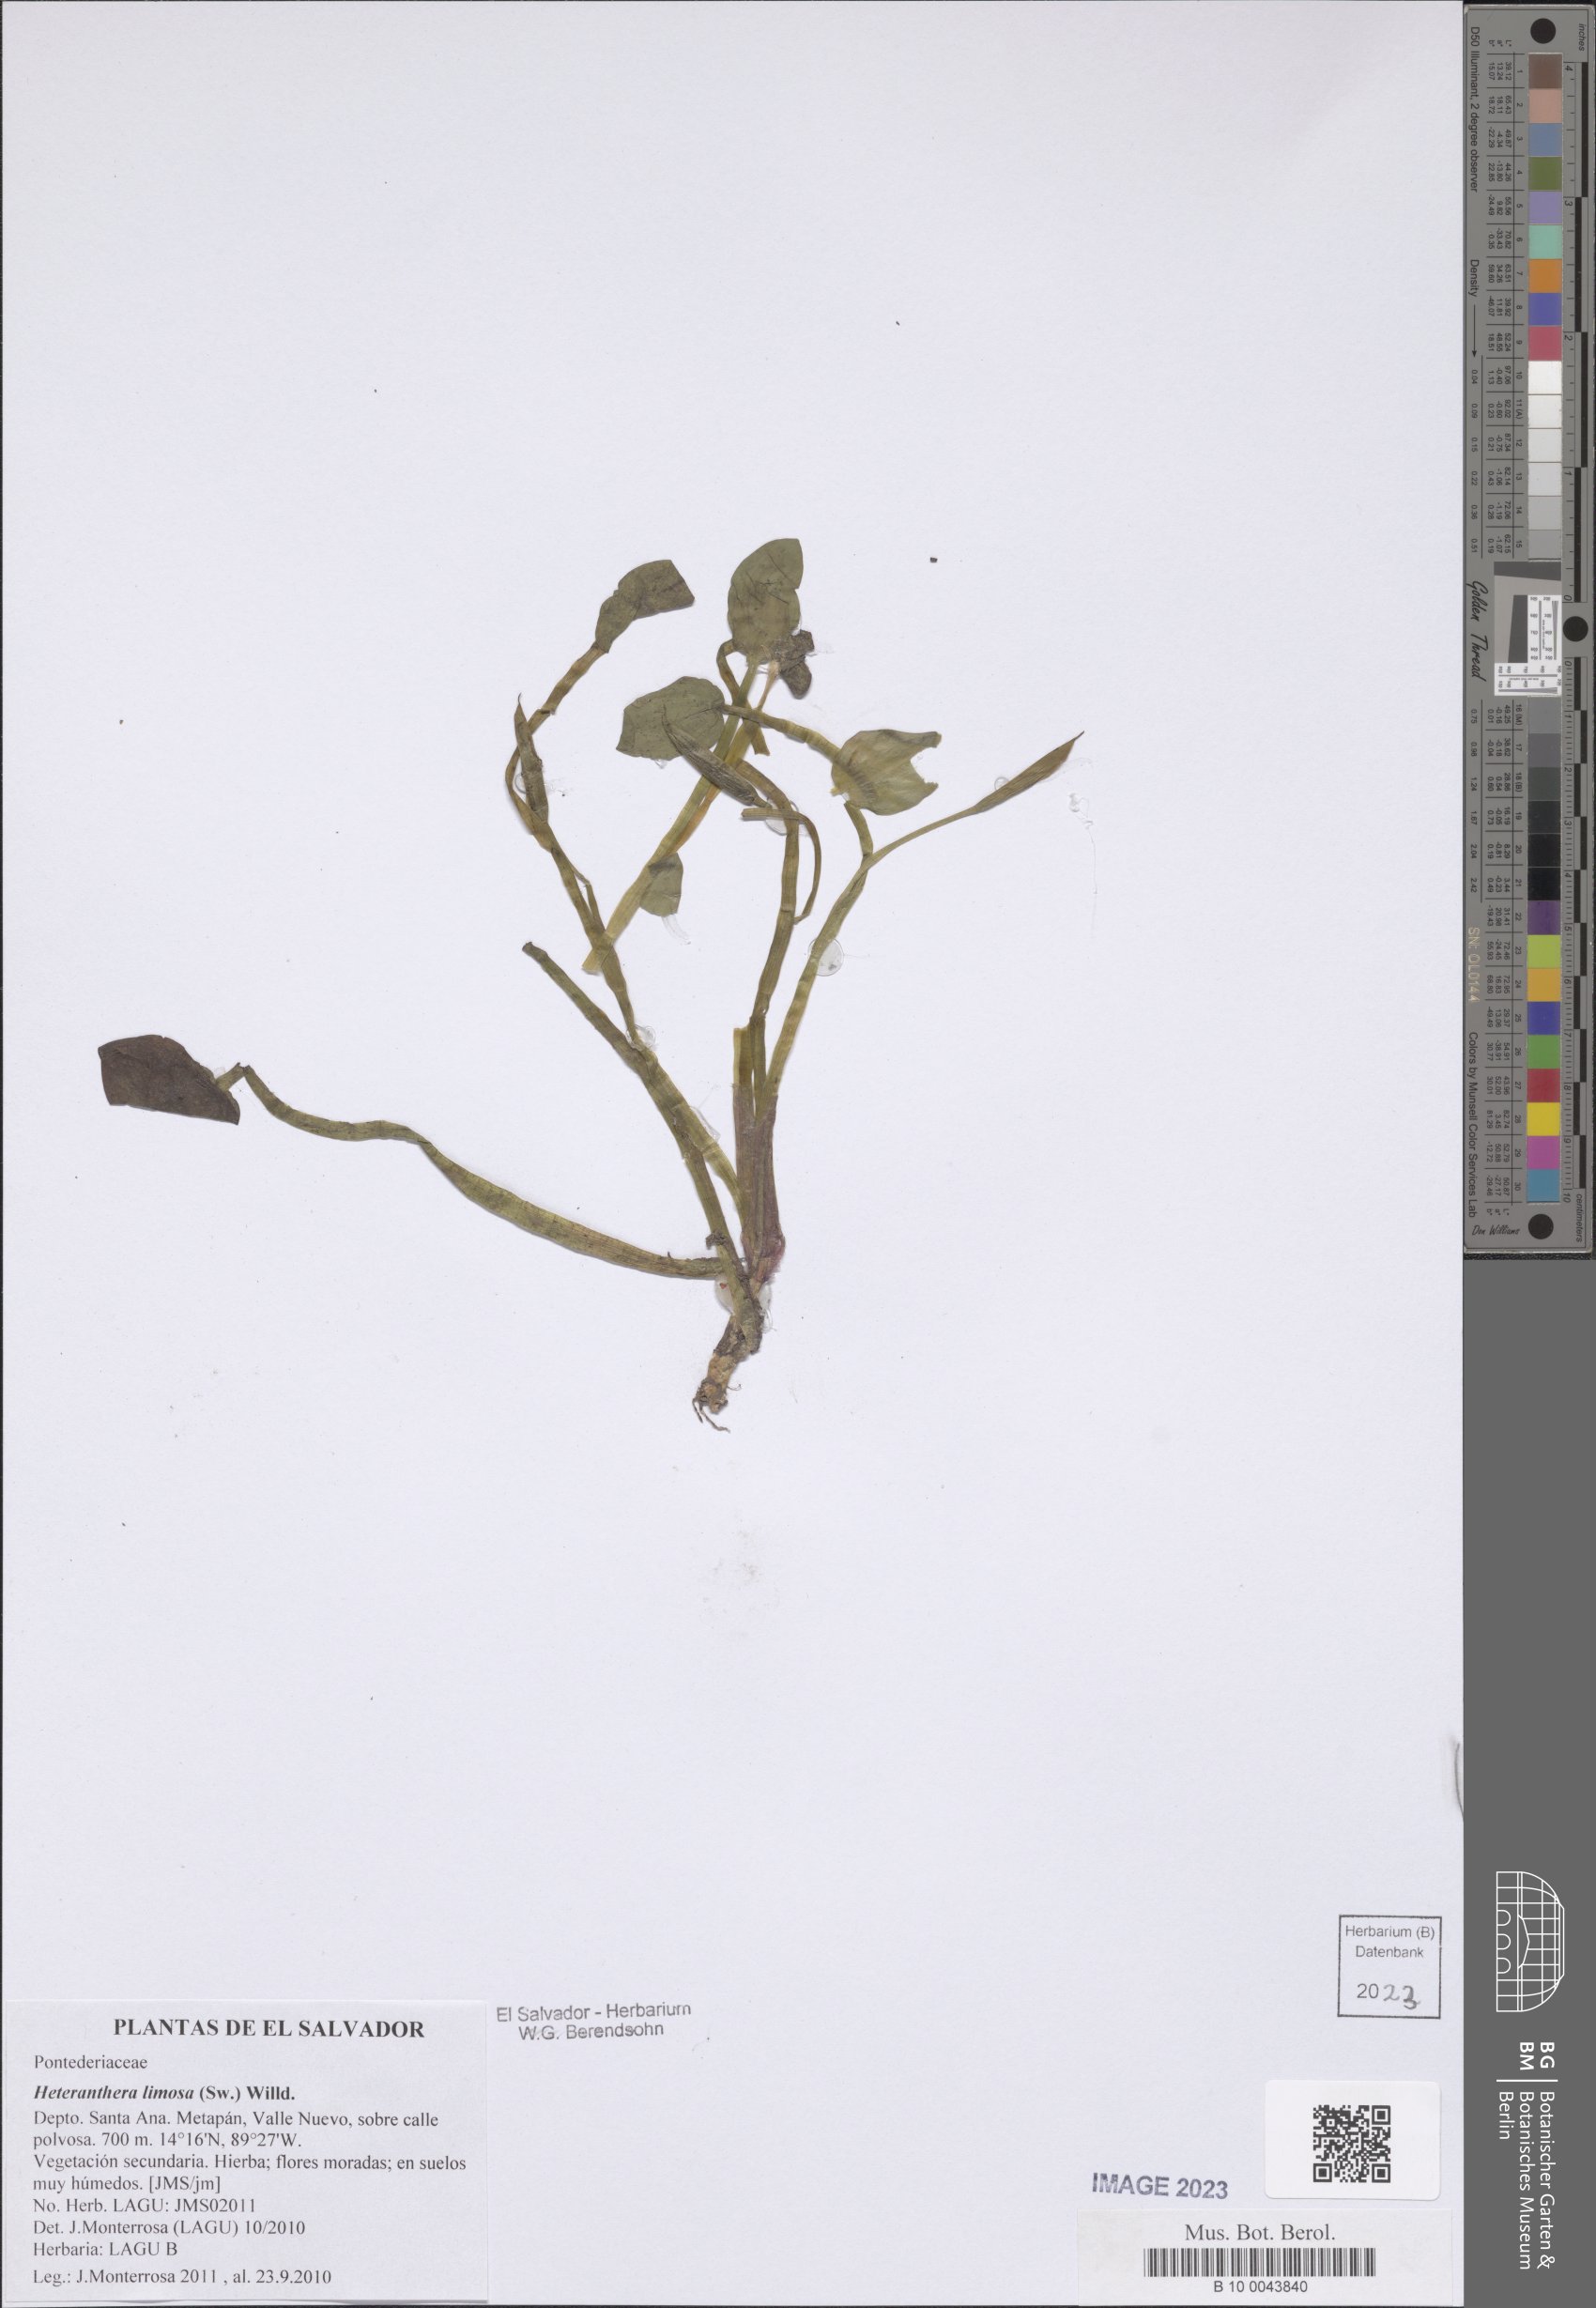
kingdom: Plantae
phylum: Tracheophyta
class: Liliopsida
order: Commelinales
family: Pontederiaceae
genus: Heteranthera
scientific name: Heteranthera limosa
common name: Blue mud-plantain
